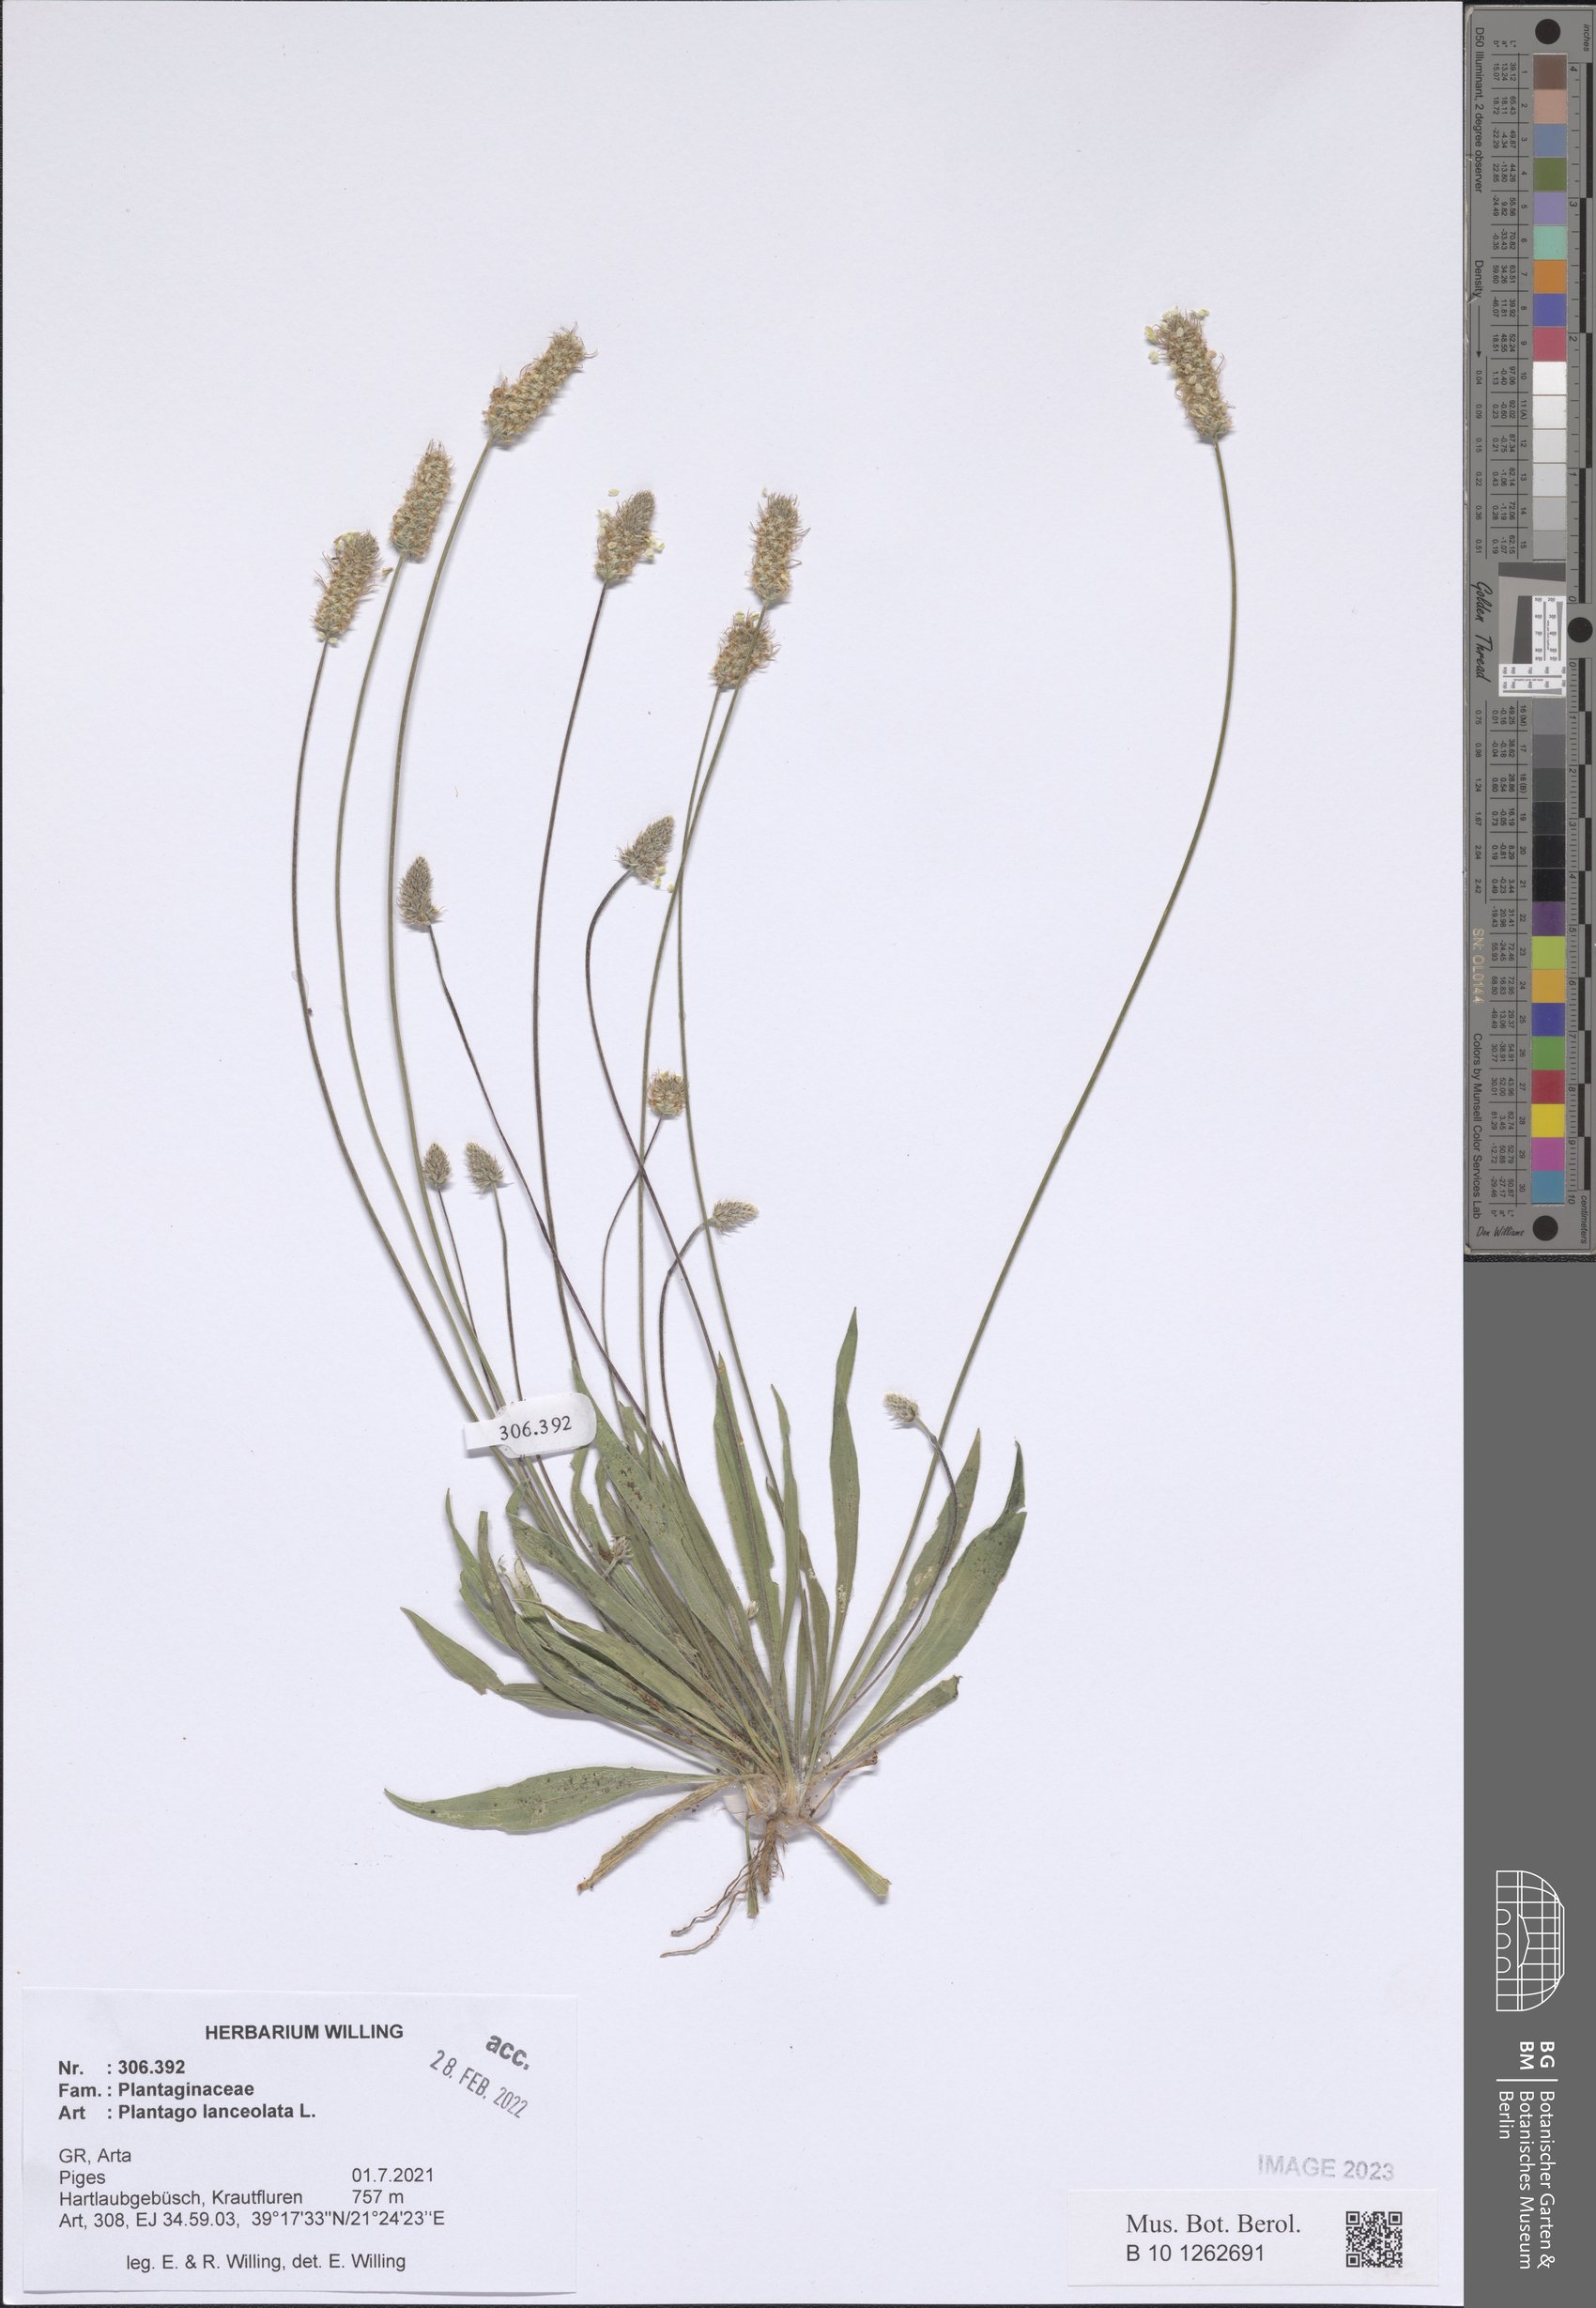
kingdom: Plantae
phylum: Tracheophyta
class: Magnoliopsida
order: Lamiales
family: Plantaginaceae
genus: Plantago
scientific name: Plantago lanceolata
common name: Ribwort plantain
